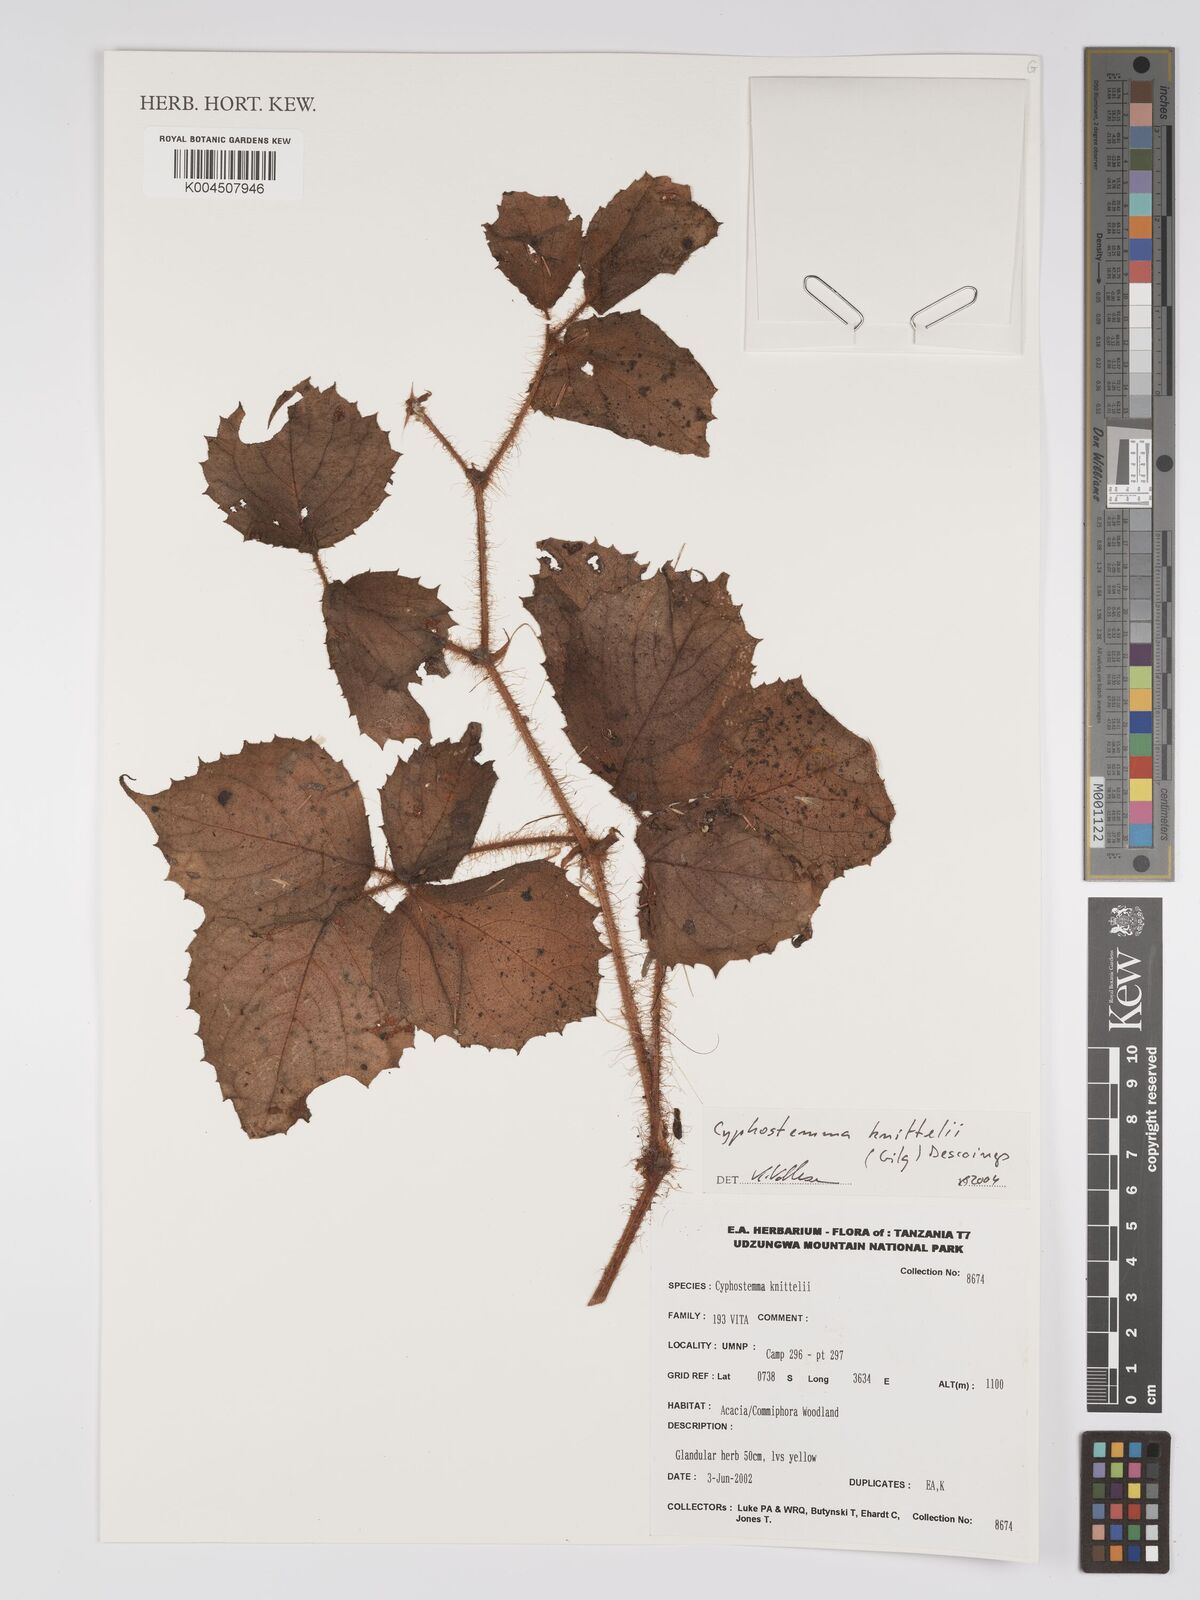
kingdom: Plantae
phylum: Tracheophyta
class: Magnoliopsida
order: Vitales
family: Vitaceae
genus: Cyphostemma
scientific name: Cyphostemma knittelii
